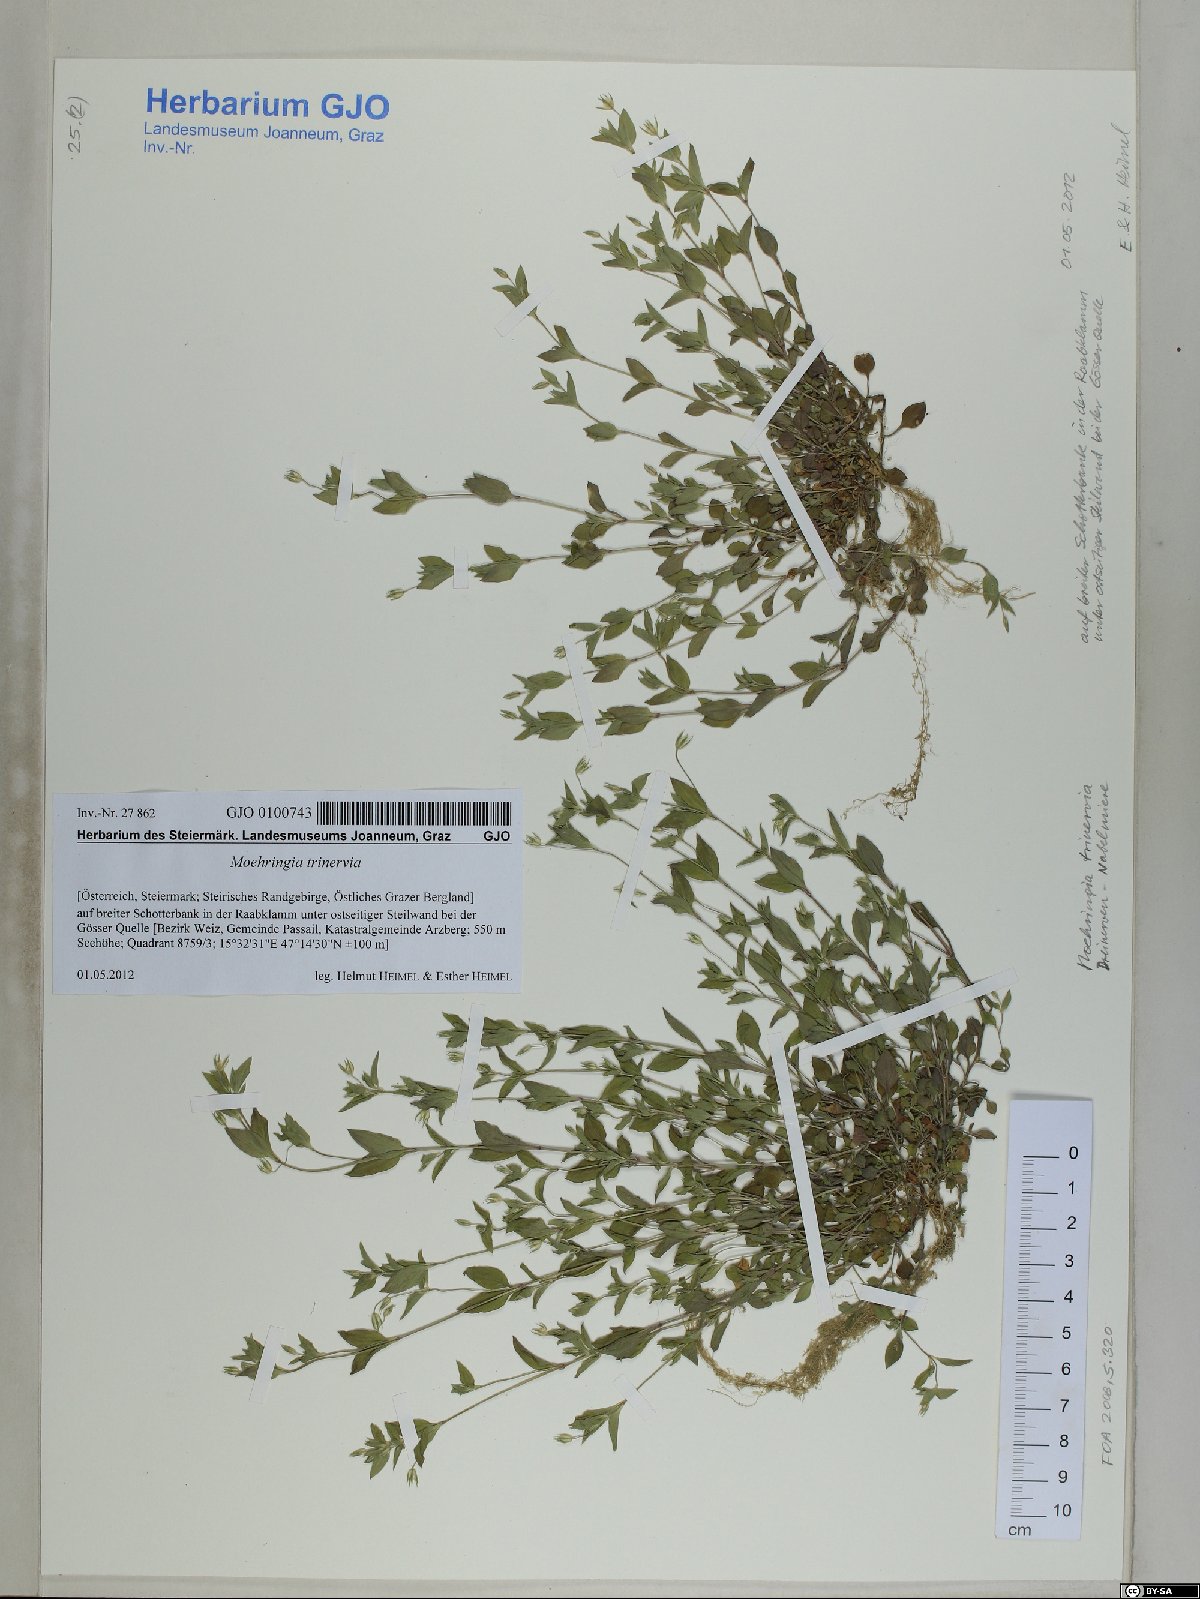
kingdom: Plantae
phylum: Tracheophyta
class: Magnoliopsida
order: Caryophyllales
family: Caryophyllaceae
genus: Moehringia
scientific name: Moehringia trinervia
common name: Three-nerved sandwort
